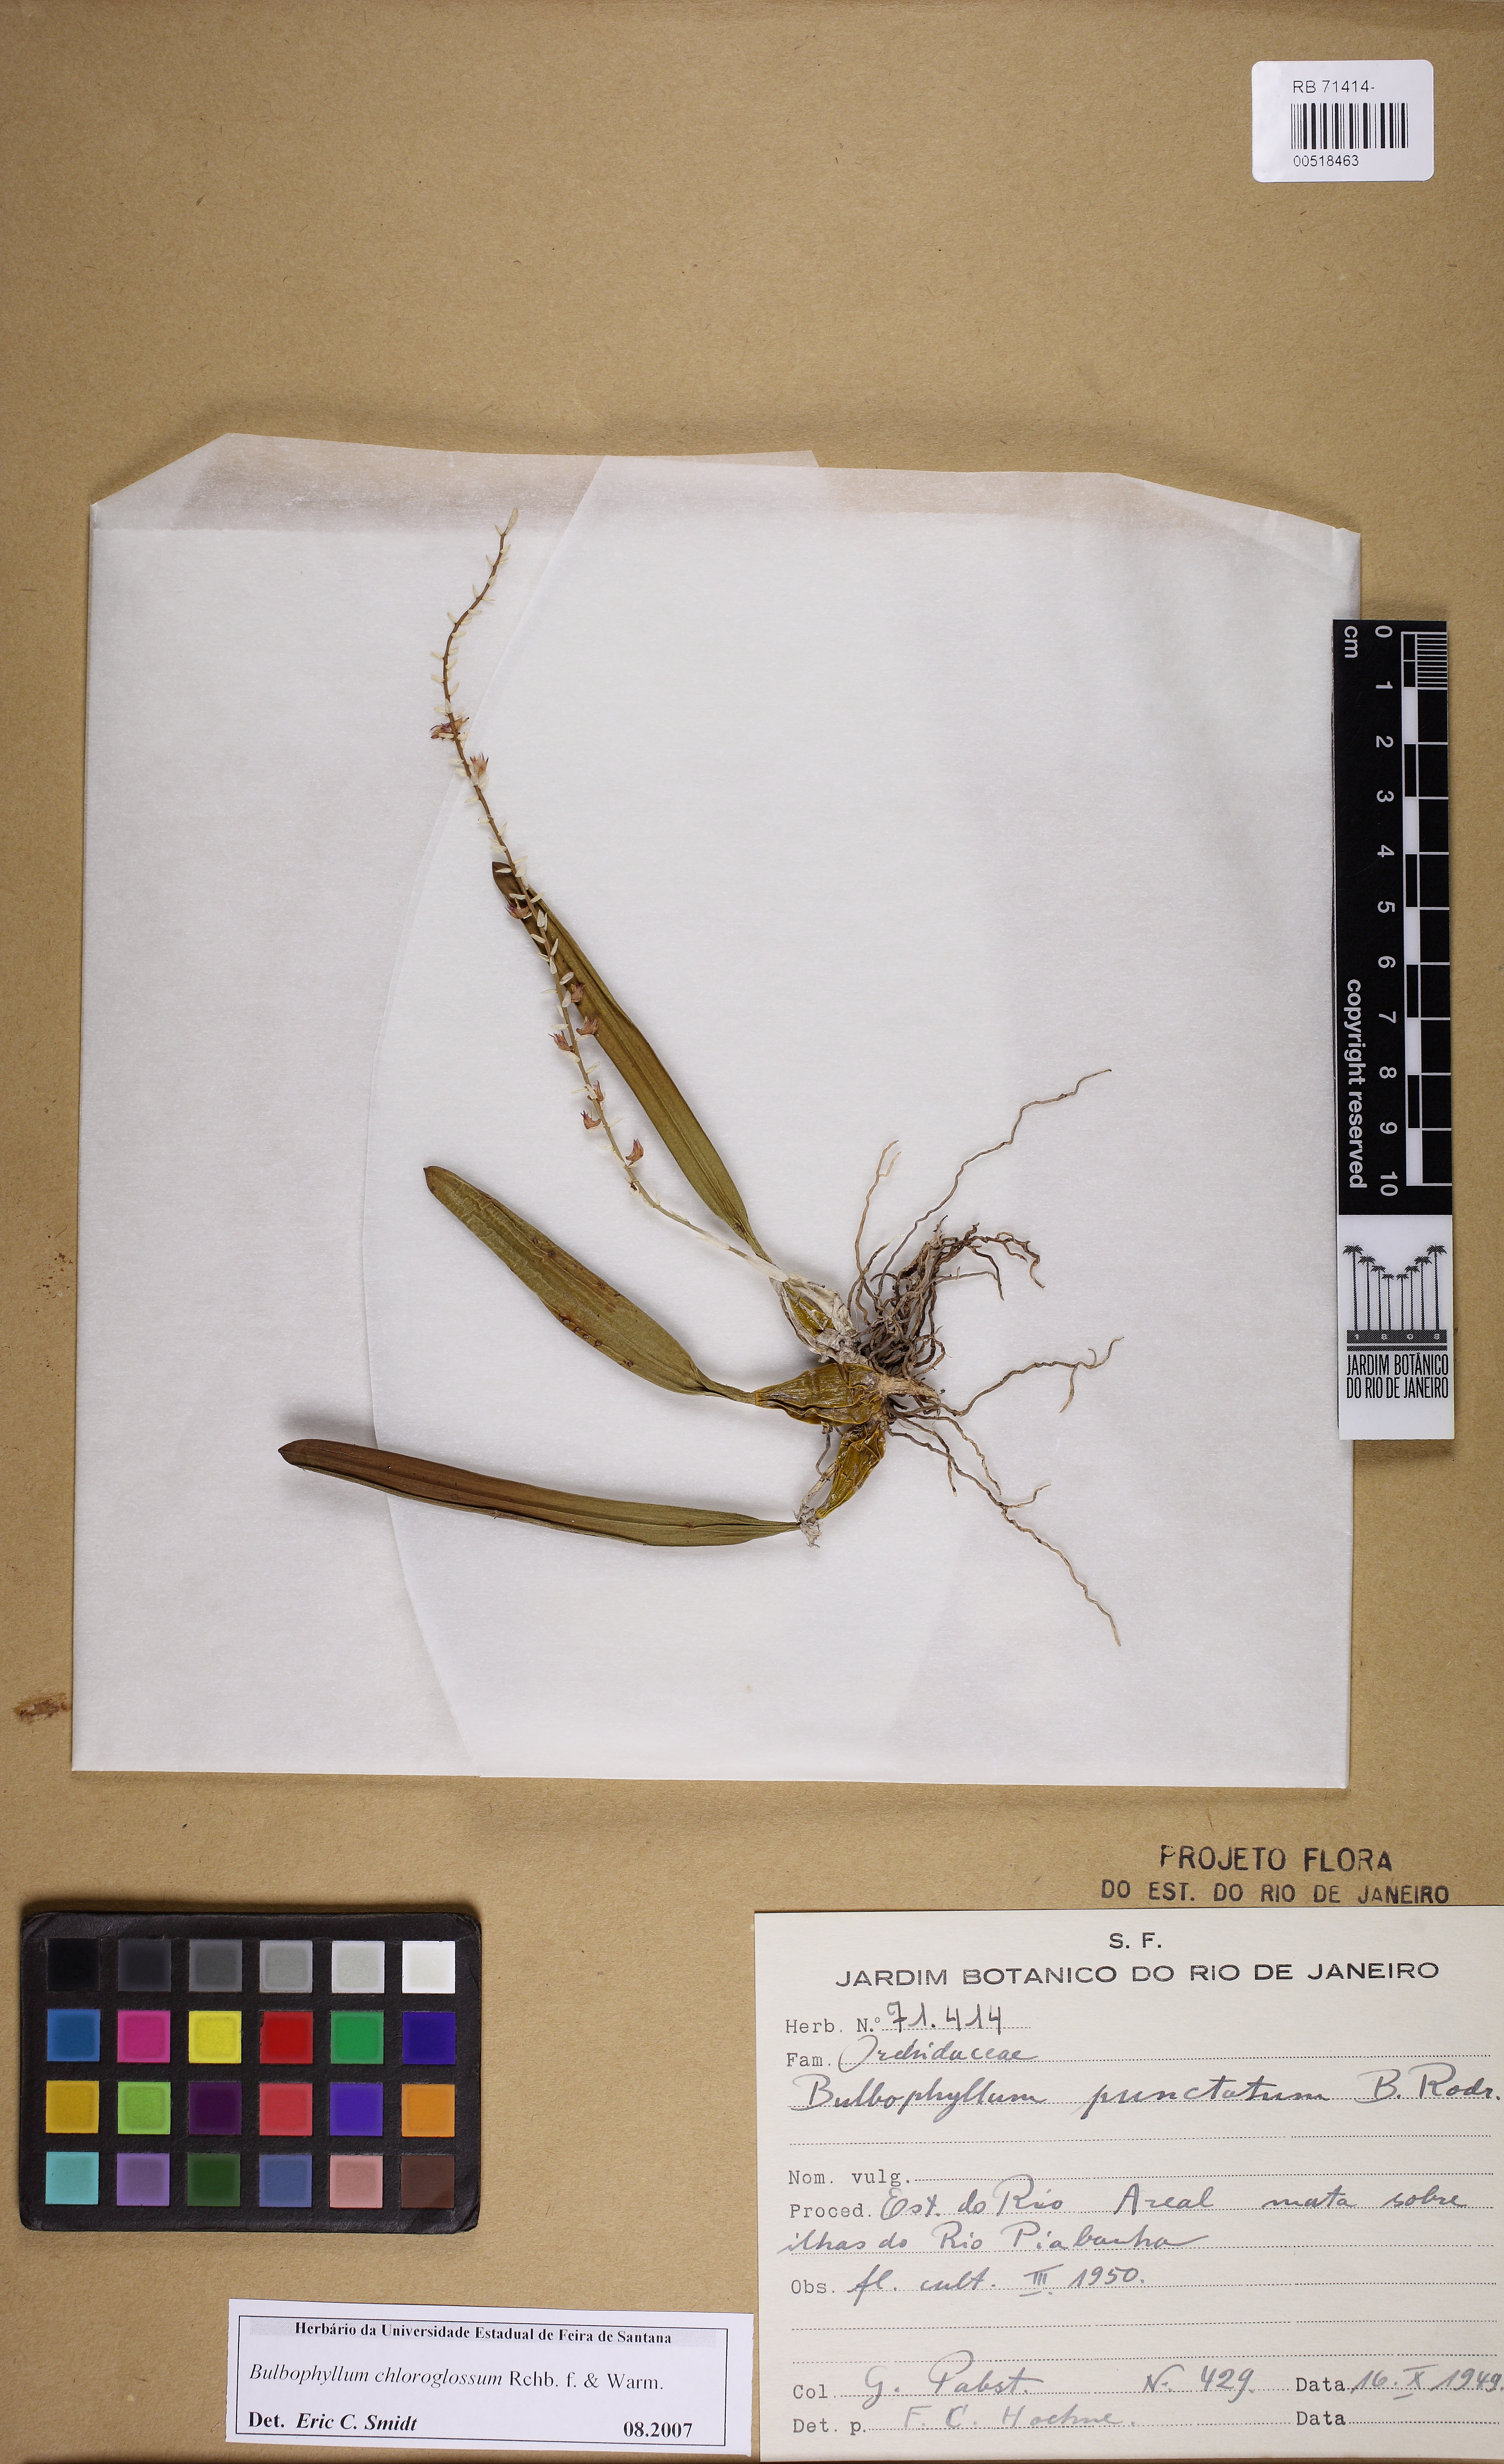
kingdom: Plantae
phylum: Tracheophyta
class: Liliopsida
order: Asparagales
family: Orchidaceae
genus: Bulbophyllum
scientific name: Bulbophyllum chloroglossum
